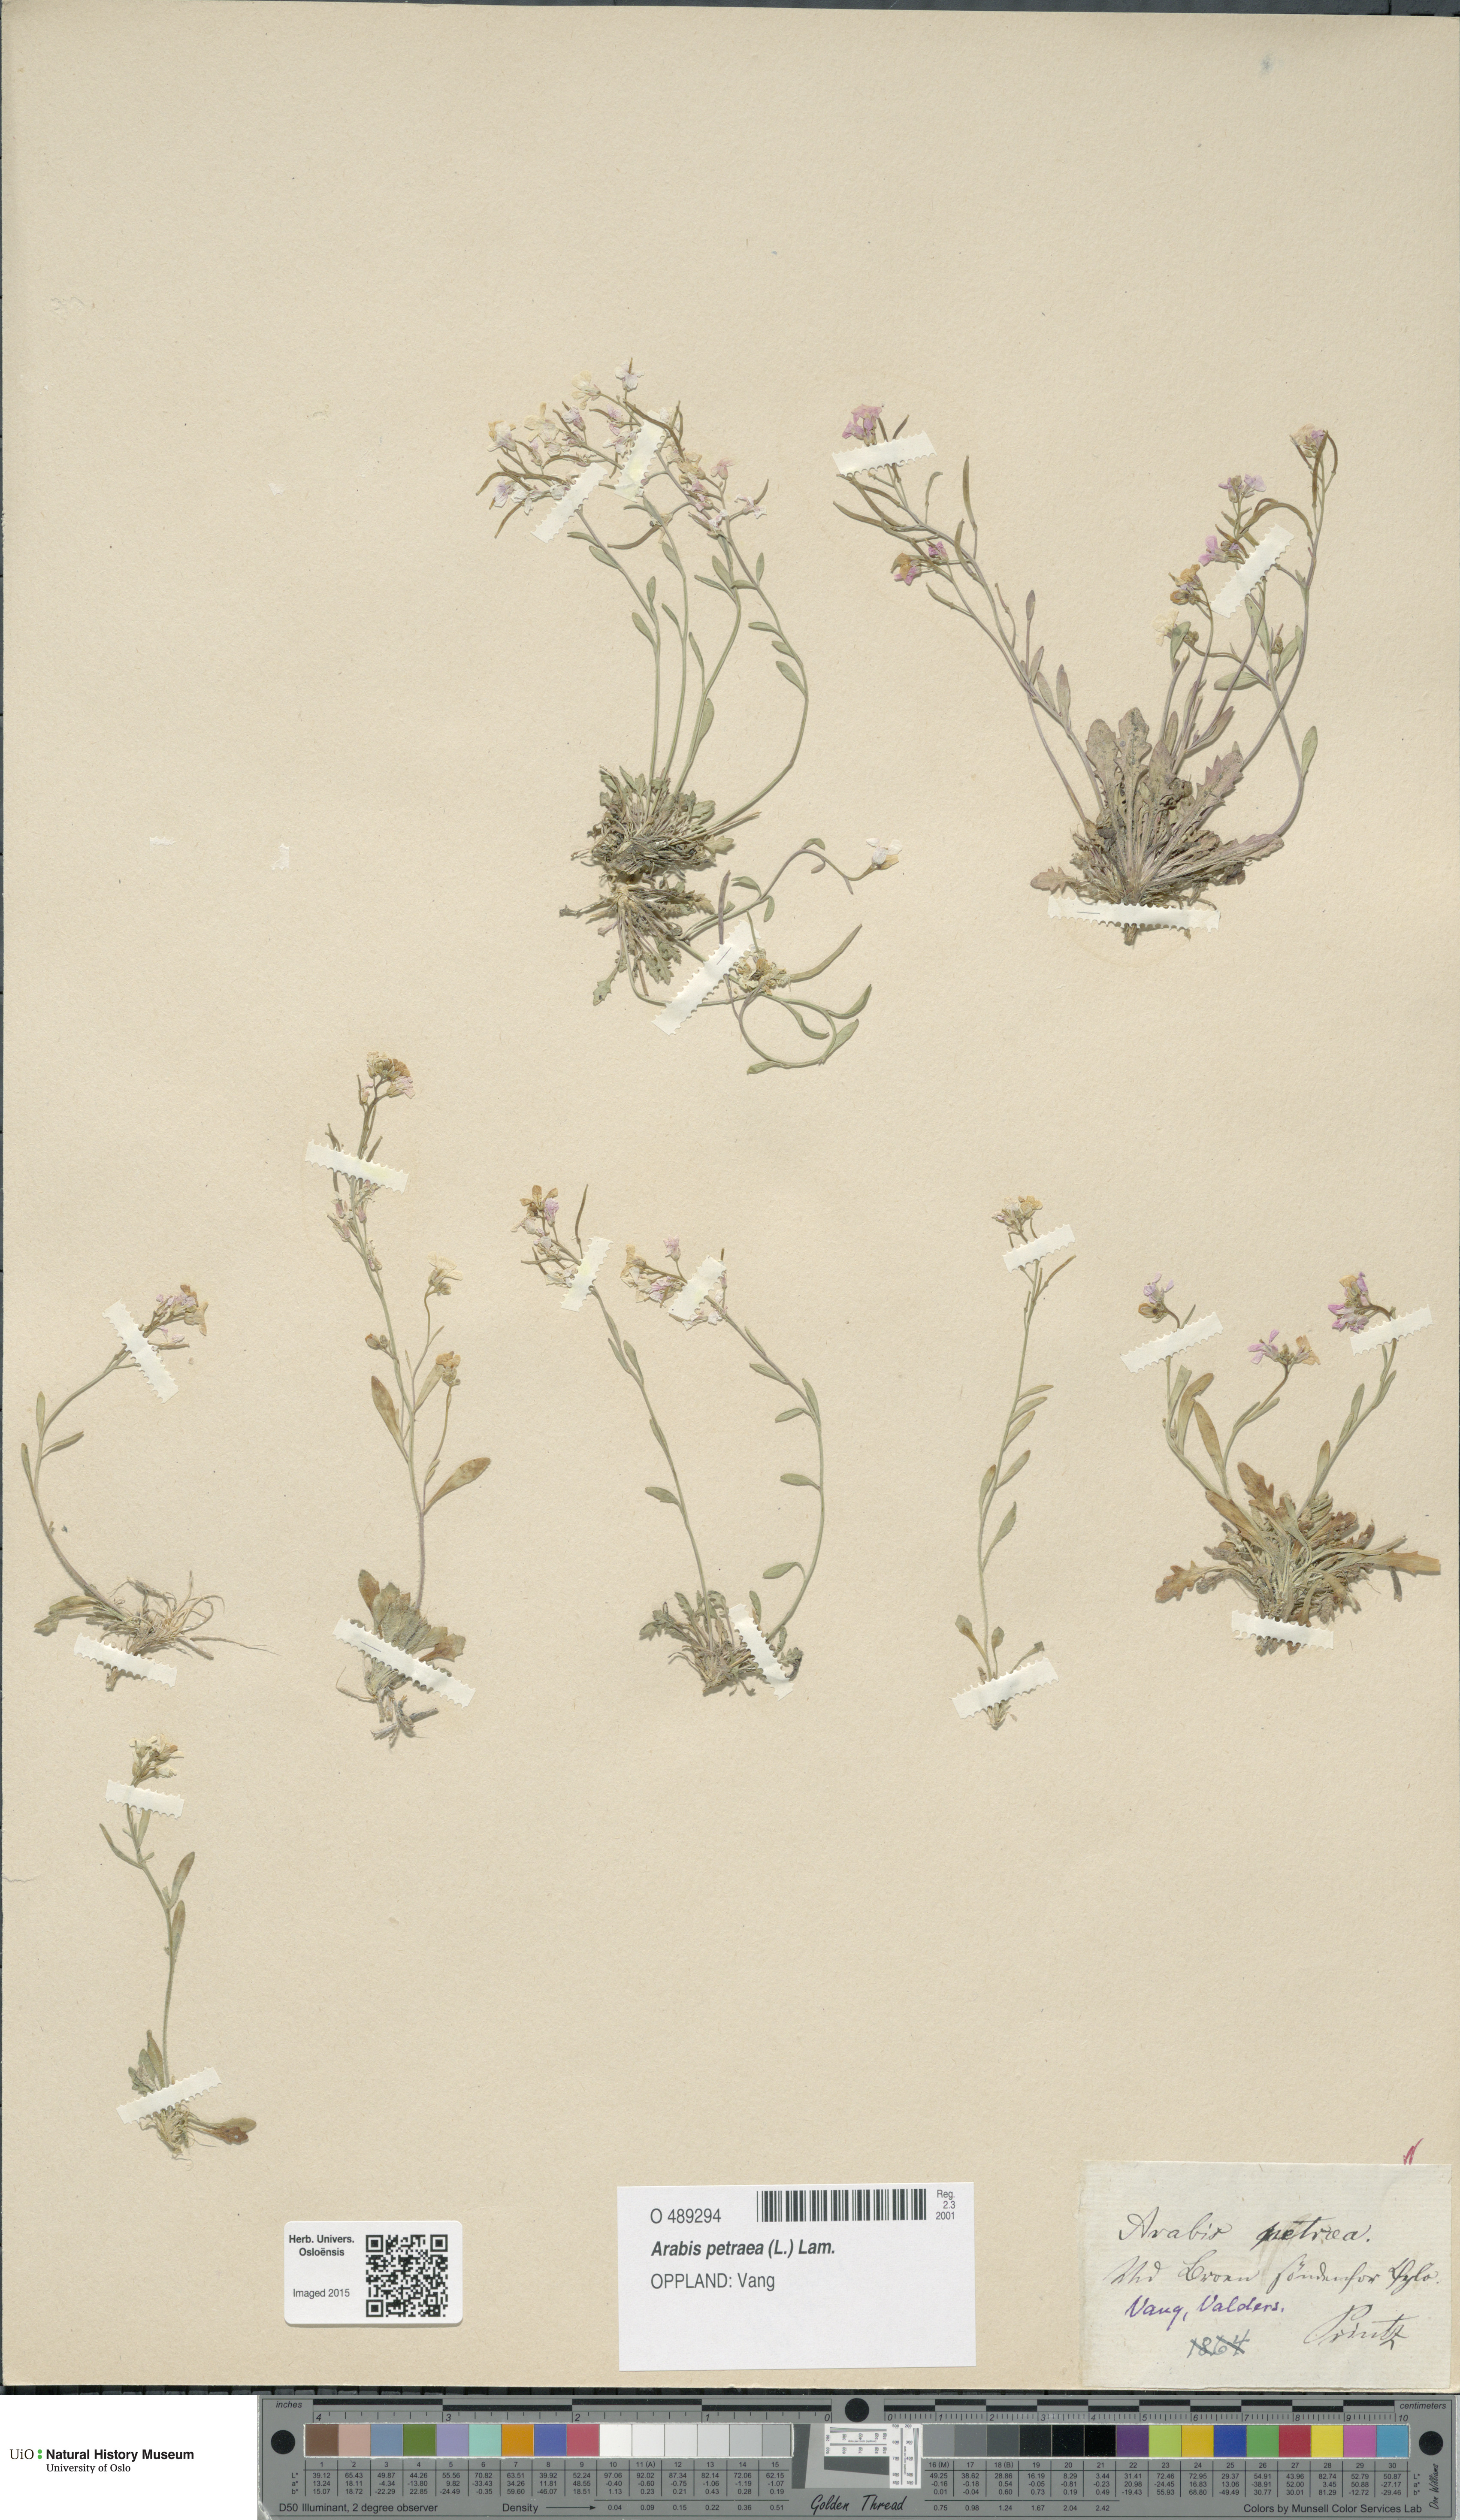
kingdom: Plantae
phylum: Tracheophyta
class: Magnoliopsida
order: Brassicales
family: Brassicaceae
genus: Arabidopsis
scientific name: Arabidopsis petraea
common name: Northern rock-cress
